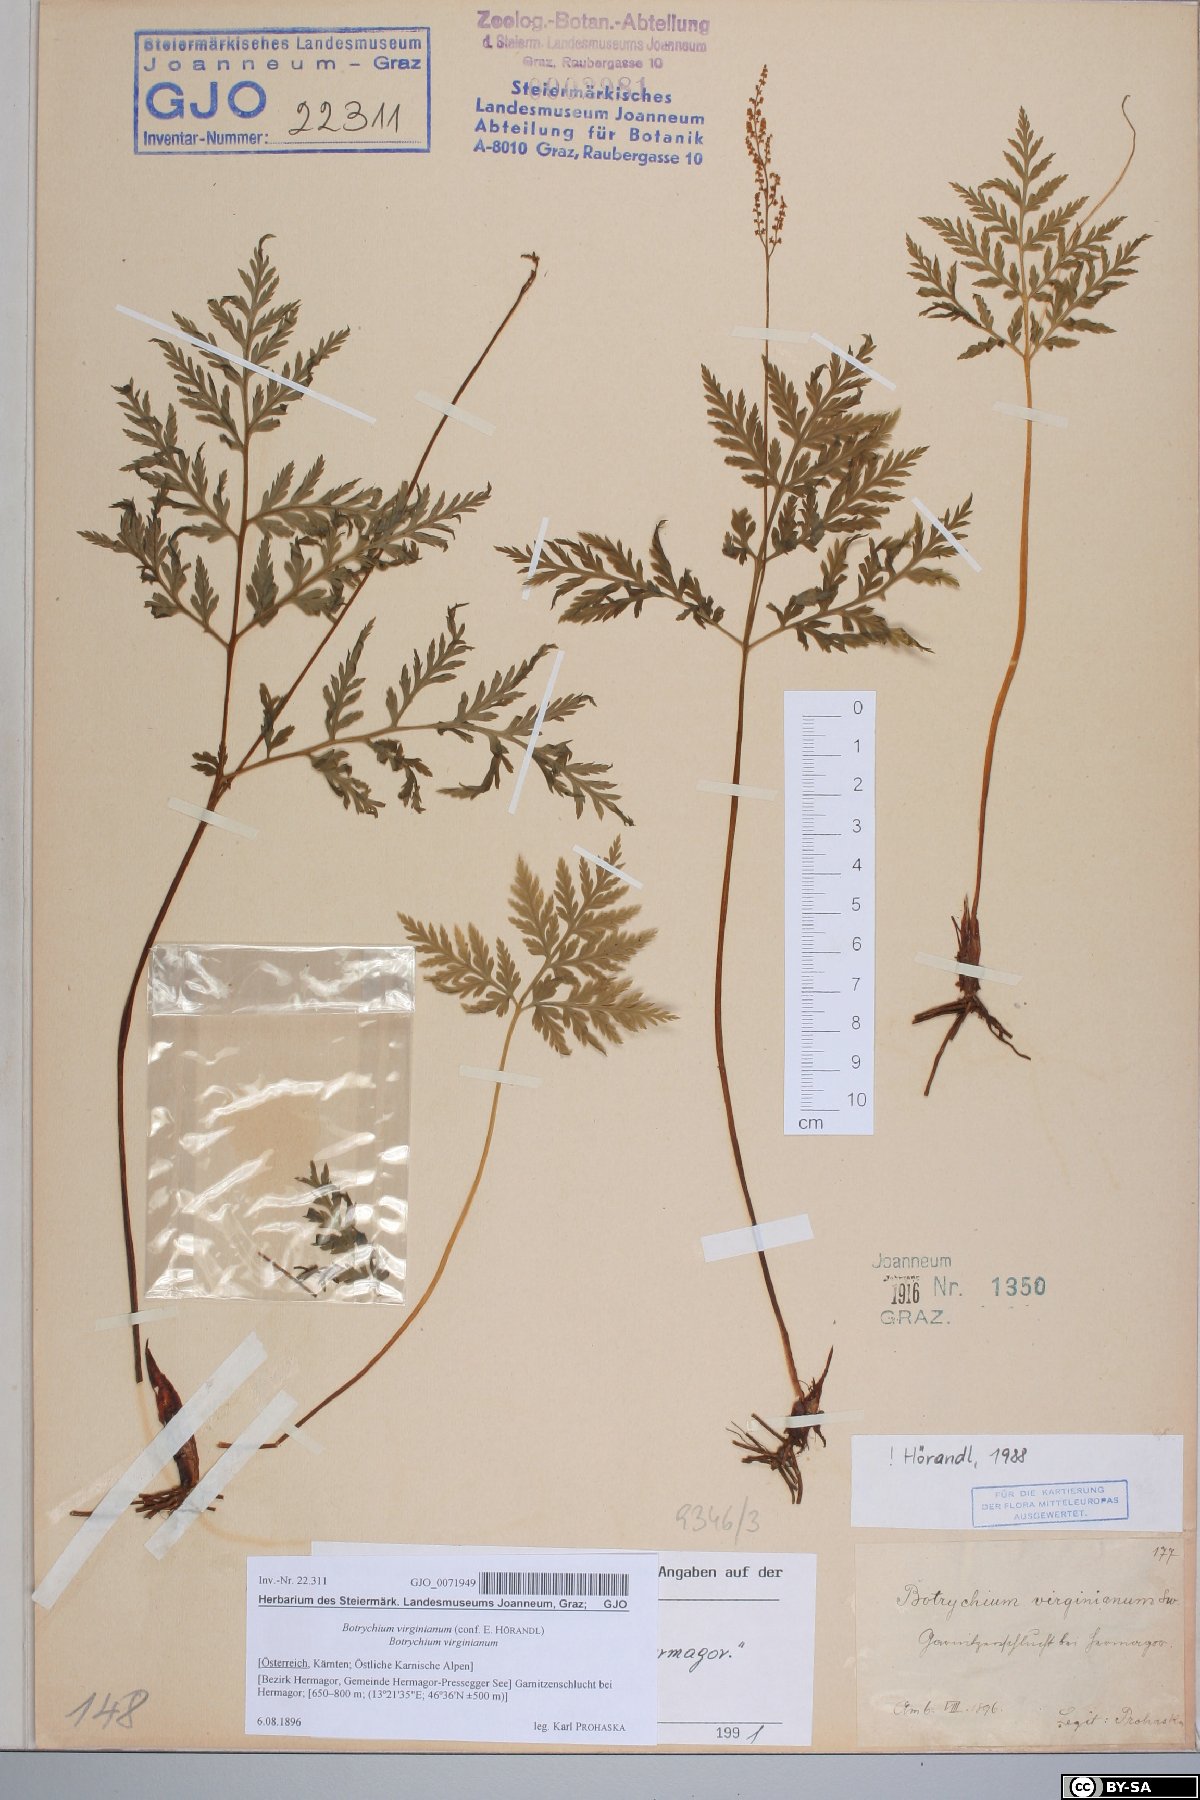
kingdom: Plantae
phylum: Tracheophyta
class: Polypodiopsida
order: Ophioglossales
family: Ophioglossaceae
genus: Botrypus
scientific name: Botrypus virginianus
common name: Common grapefern
